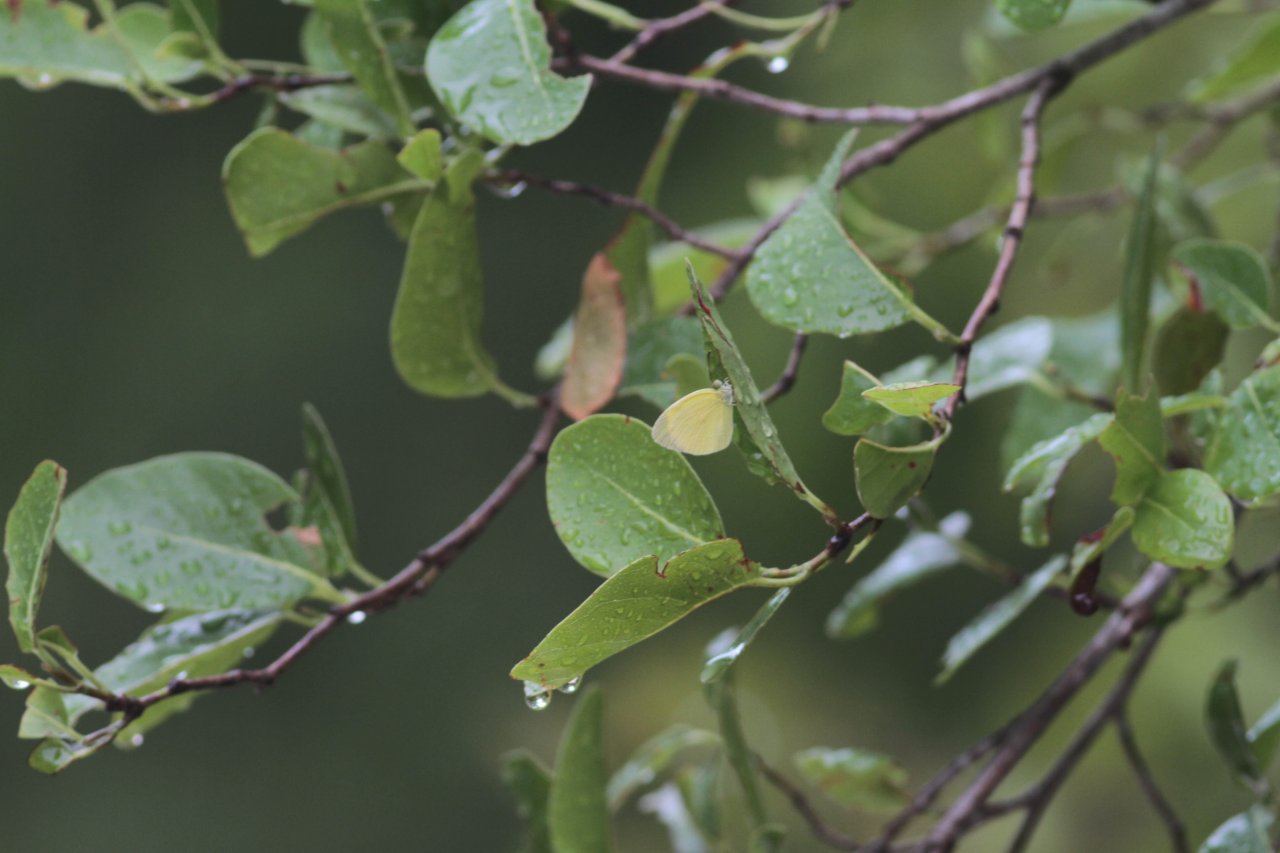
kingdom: Animalia
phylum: Arthropoda
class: Insecta
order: Lepidoptera
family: Pieridae
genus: Pyrisitia
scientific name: Pyrisitia nise
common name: Mimosa Yellow
